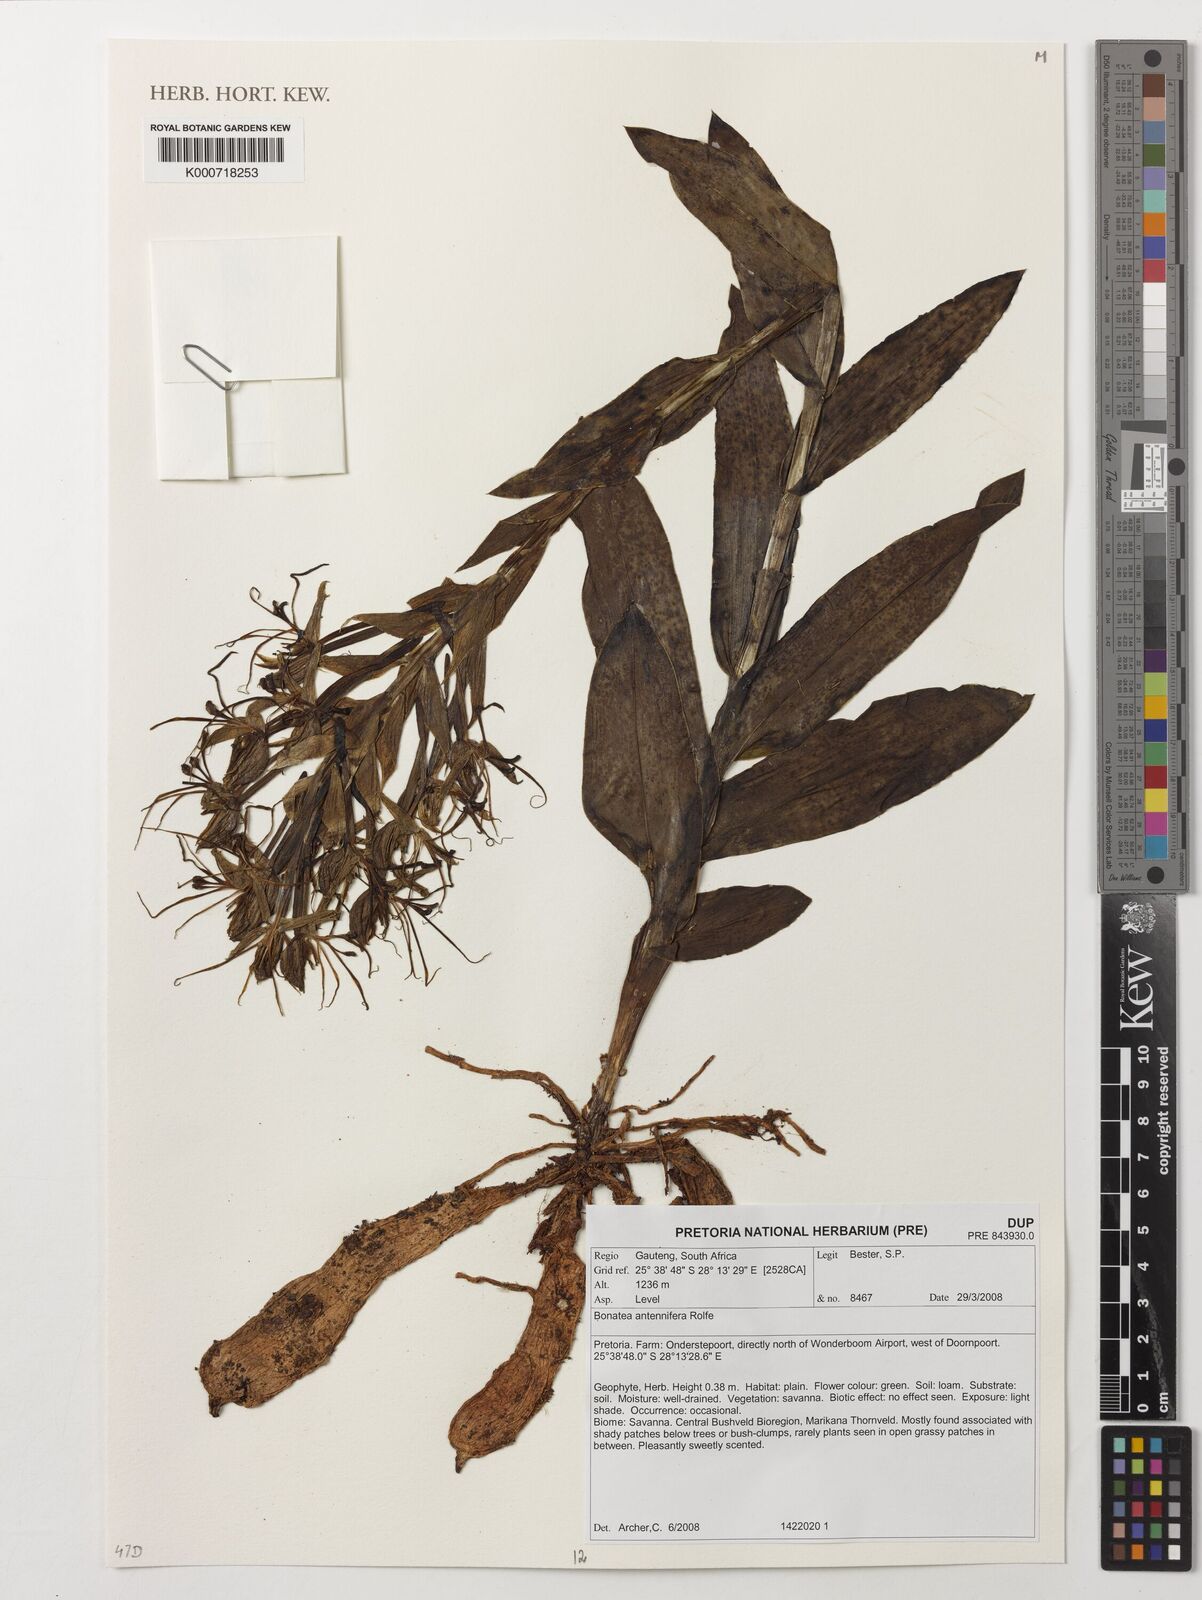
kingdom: Plantae
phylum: Tracheophyta
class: Liliopsida
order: Asparagales
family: Orchidaceae
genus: Bonatea
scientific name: Bonatea antennifera
